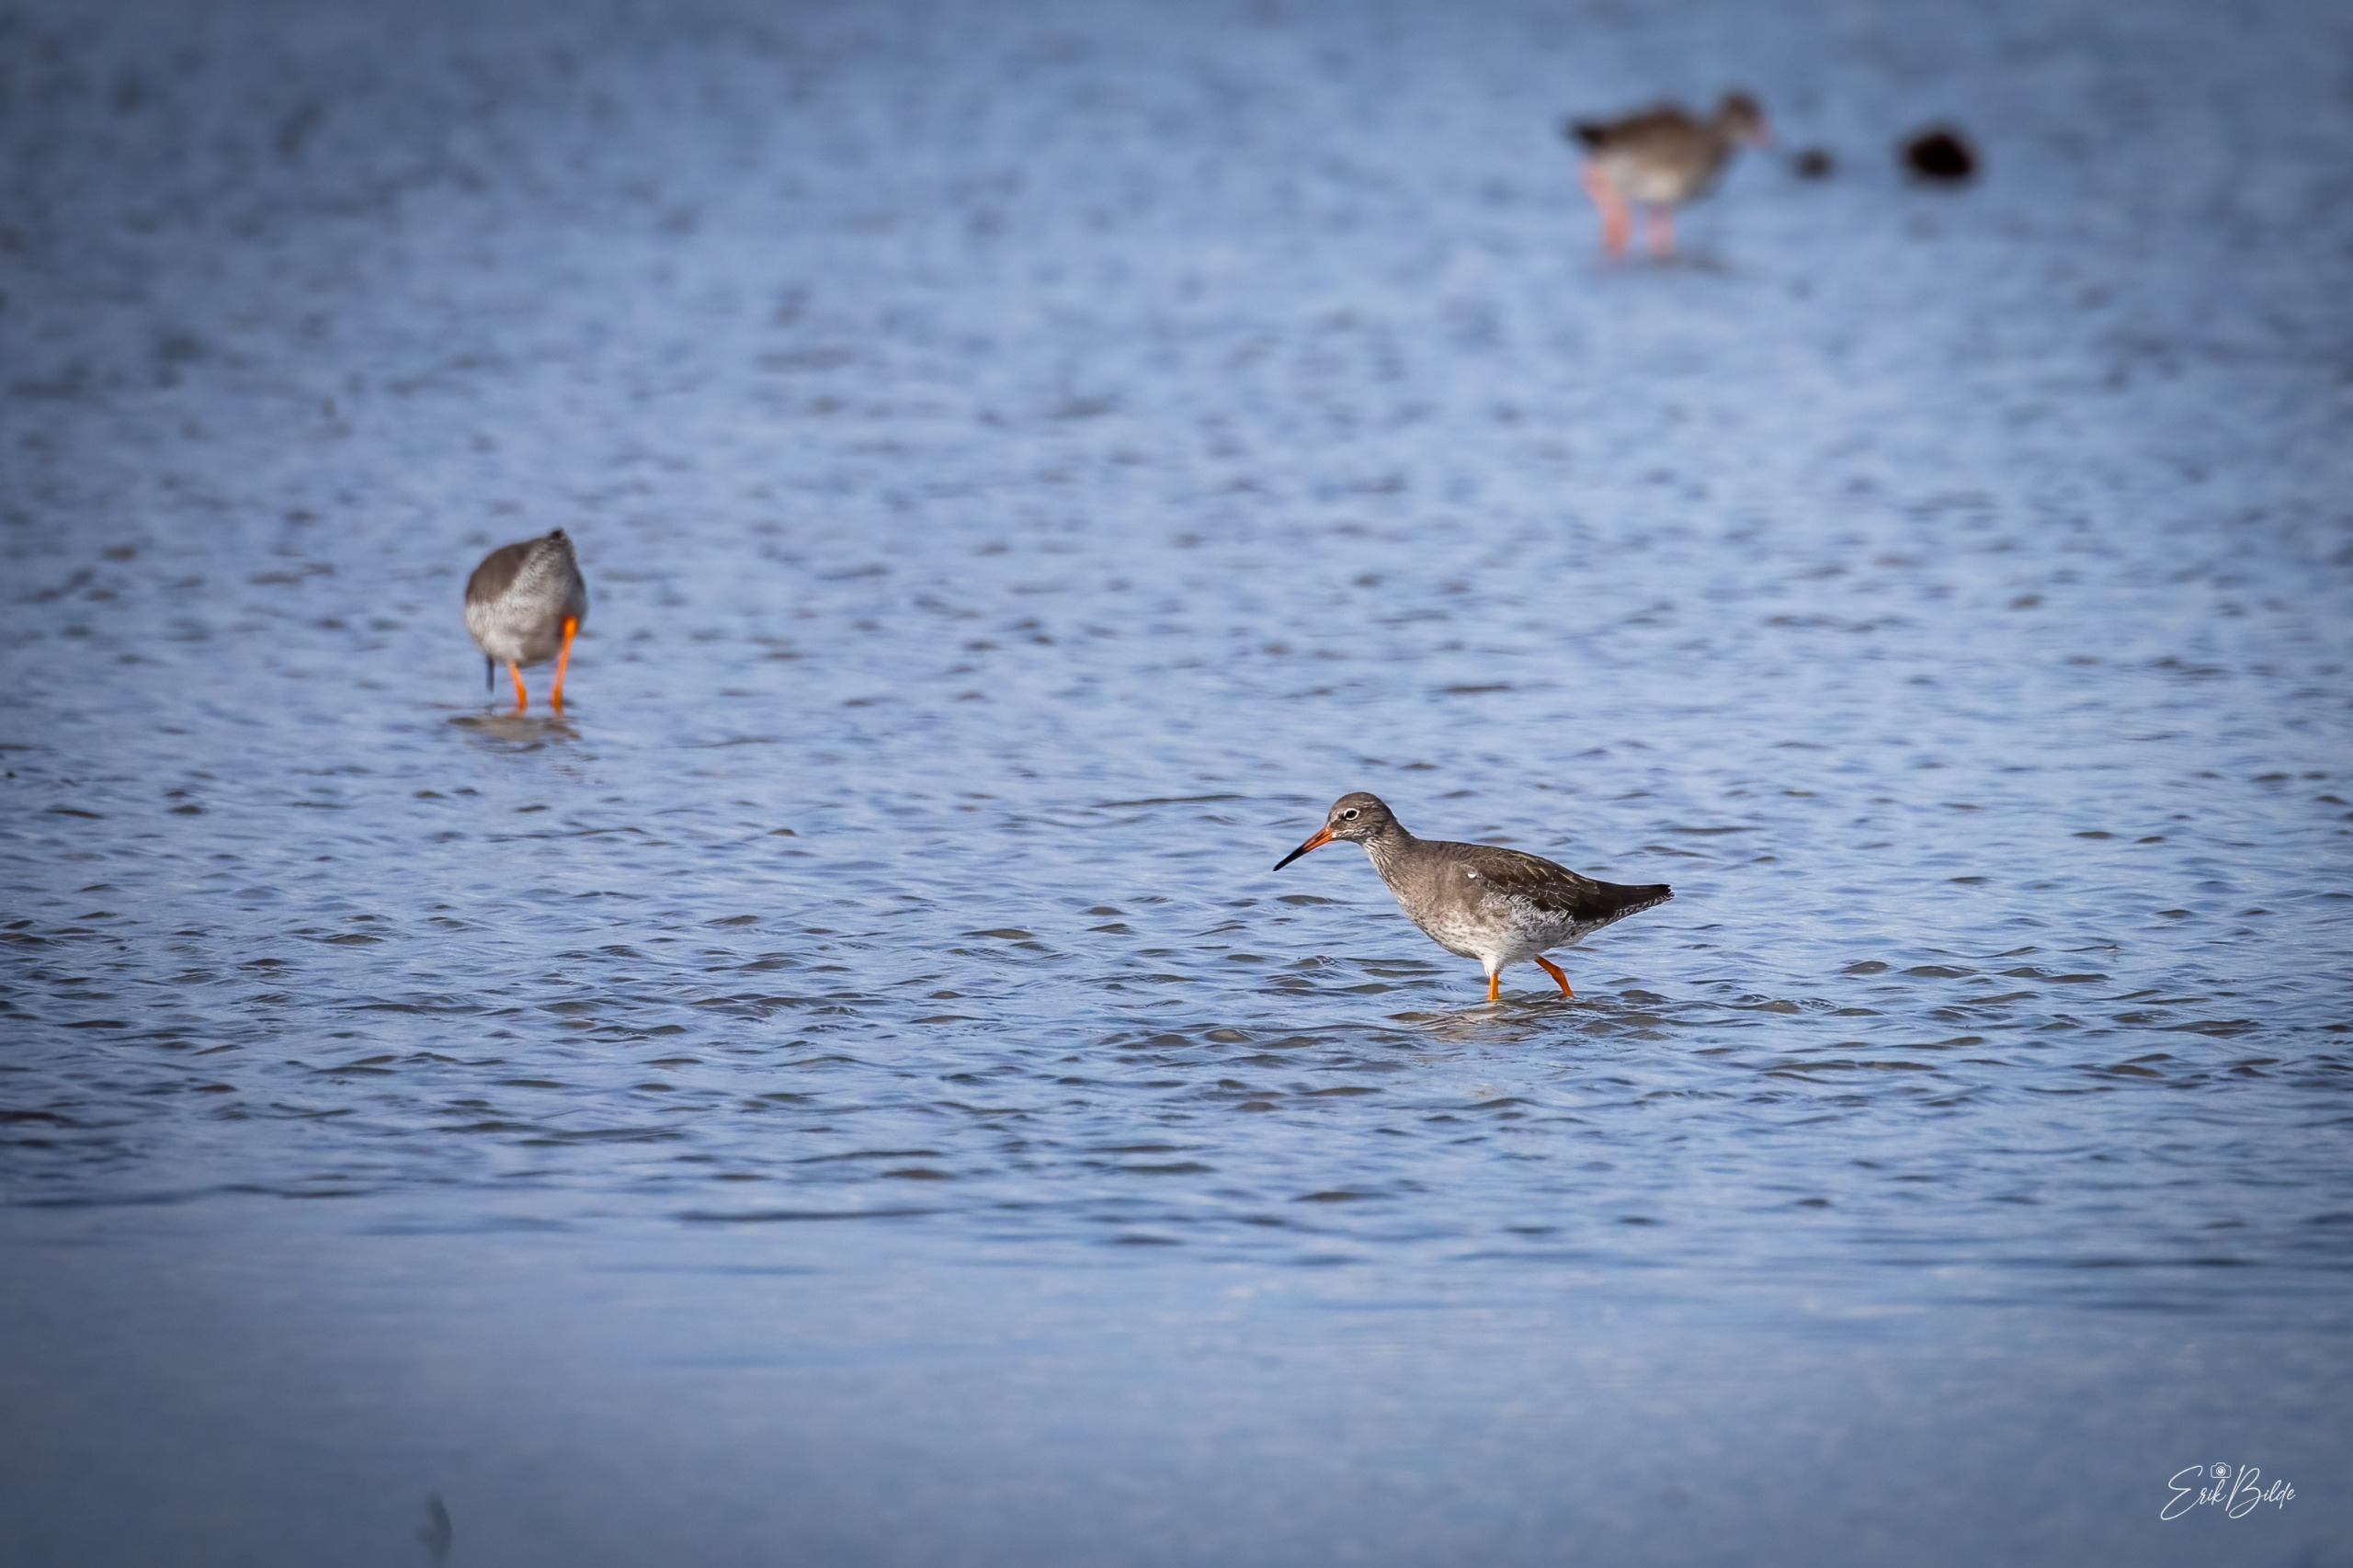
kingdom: Animalia
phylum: Chordata
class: Aves
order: Charadriiformes
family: Scolopacidae
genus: Tringa
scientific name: Tringa totanus
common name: Rødben
